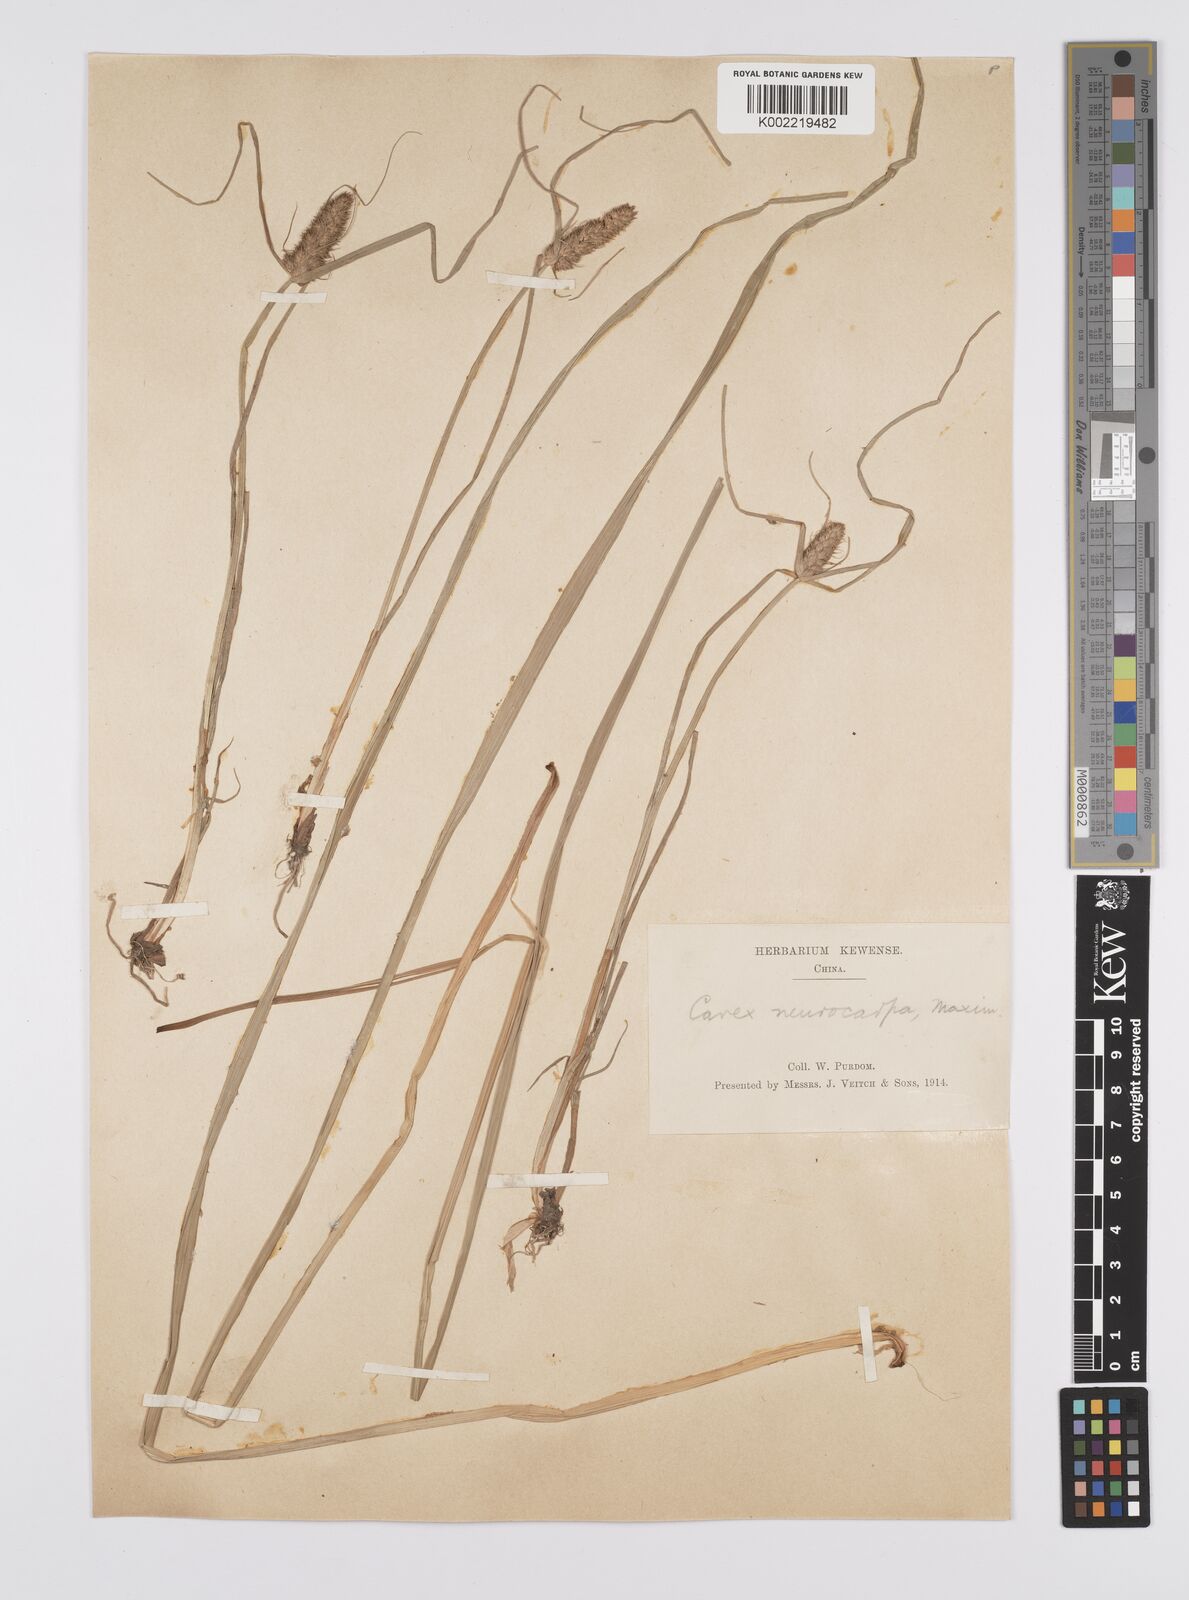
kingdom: Plantae
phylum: Tracheophyta
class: Liliopsida
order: Poales
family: Cyperaceae
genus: Carex
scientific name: Carex neurocarpa
